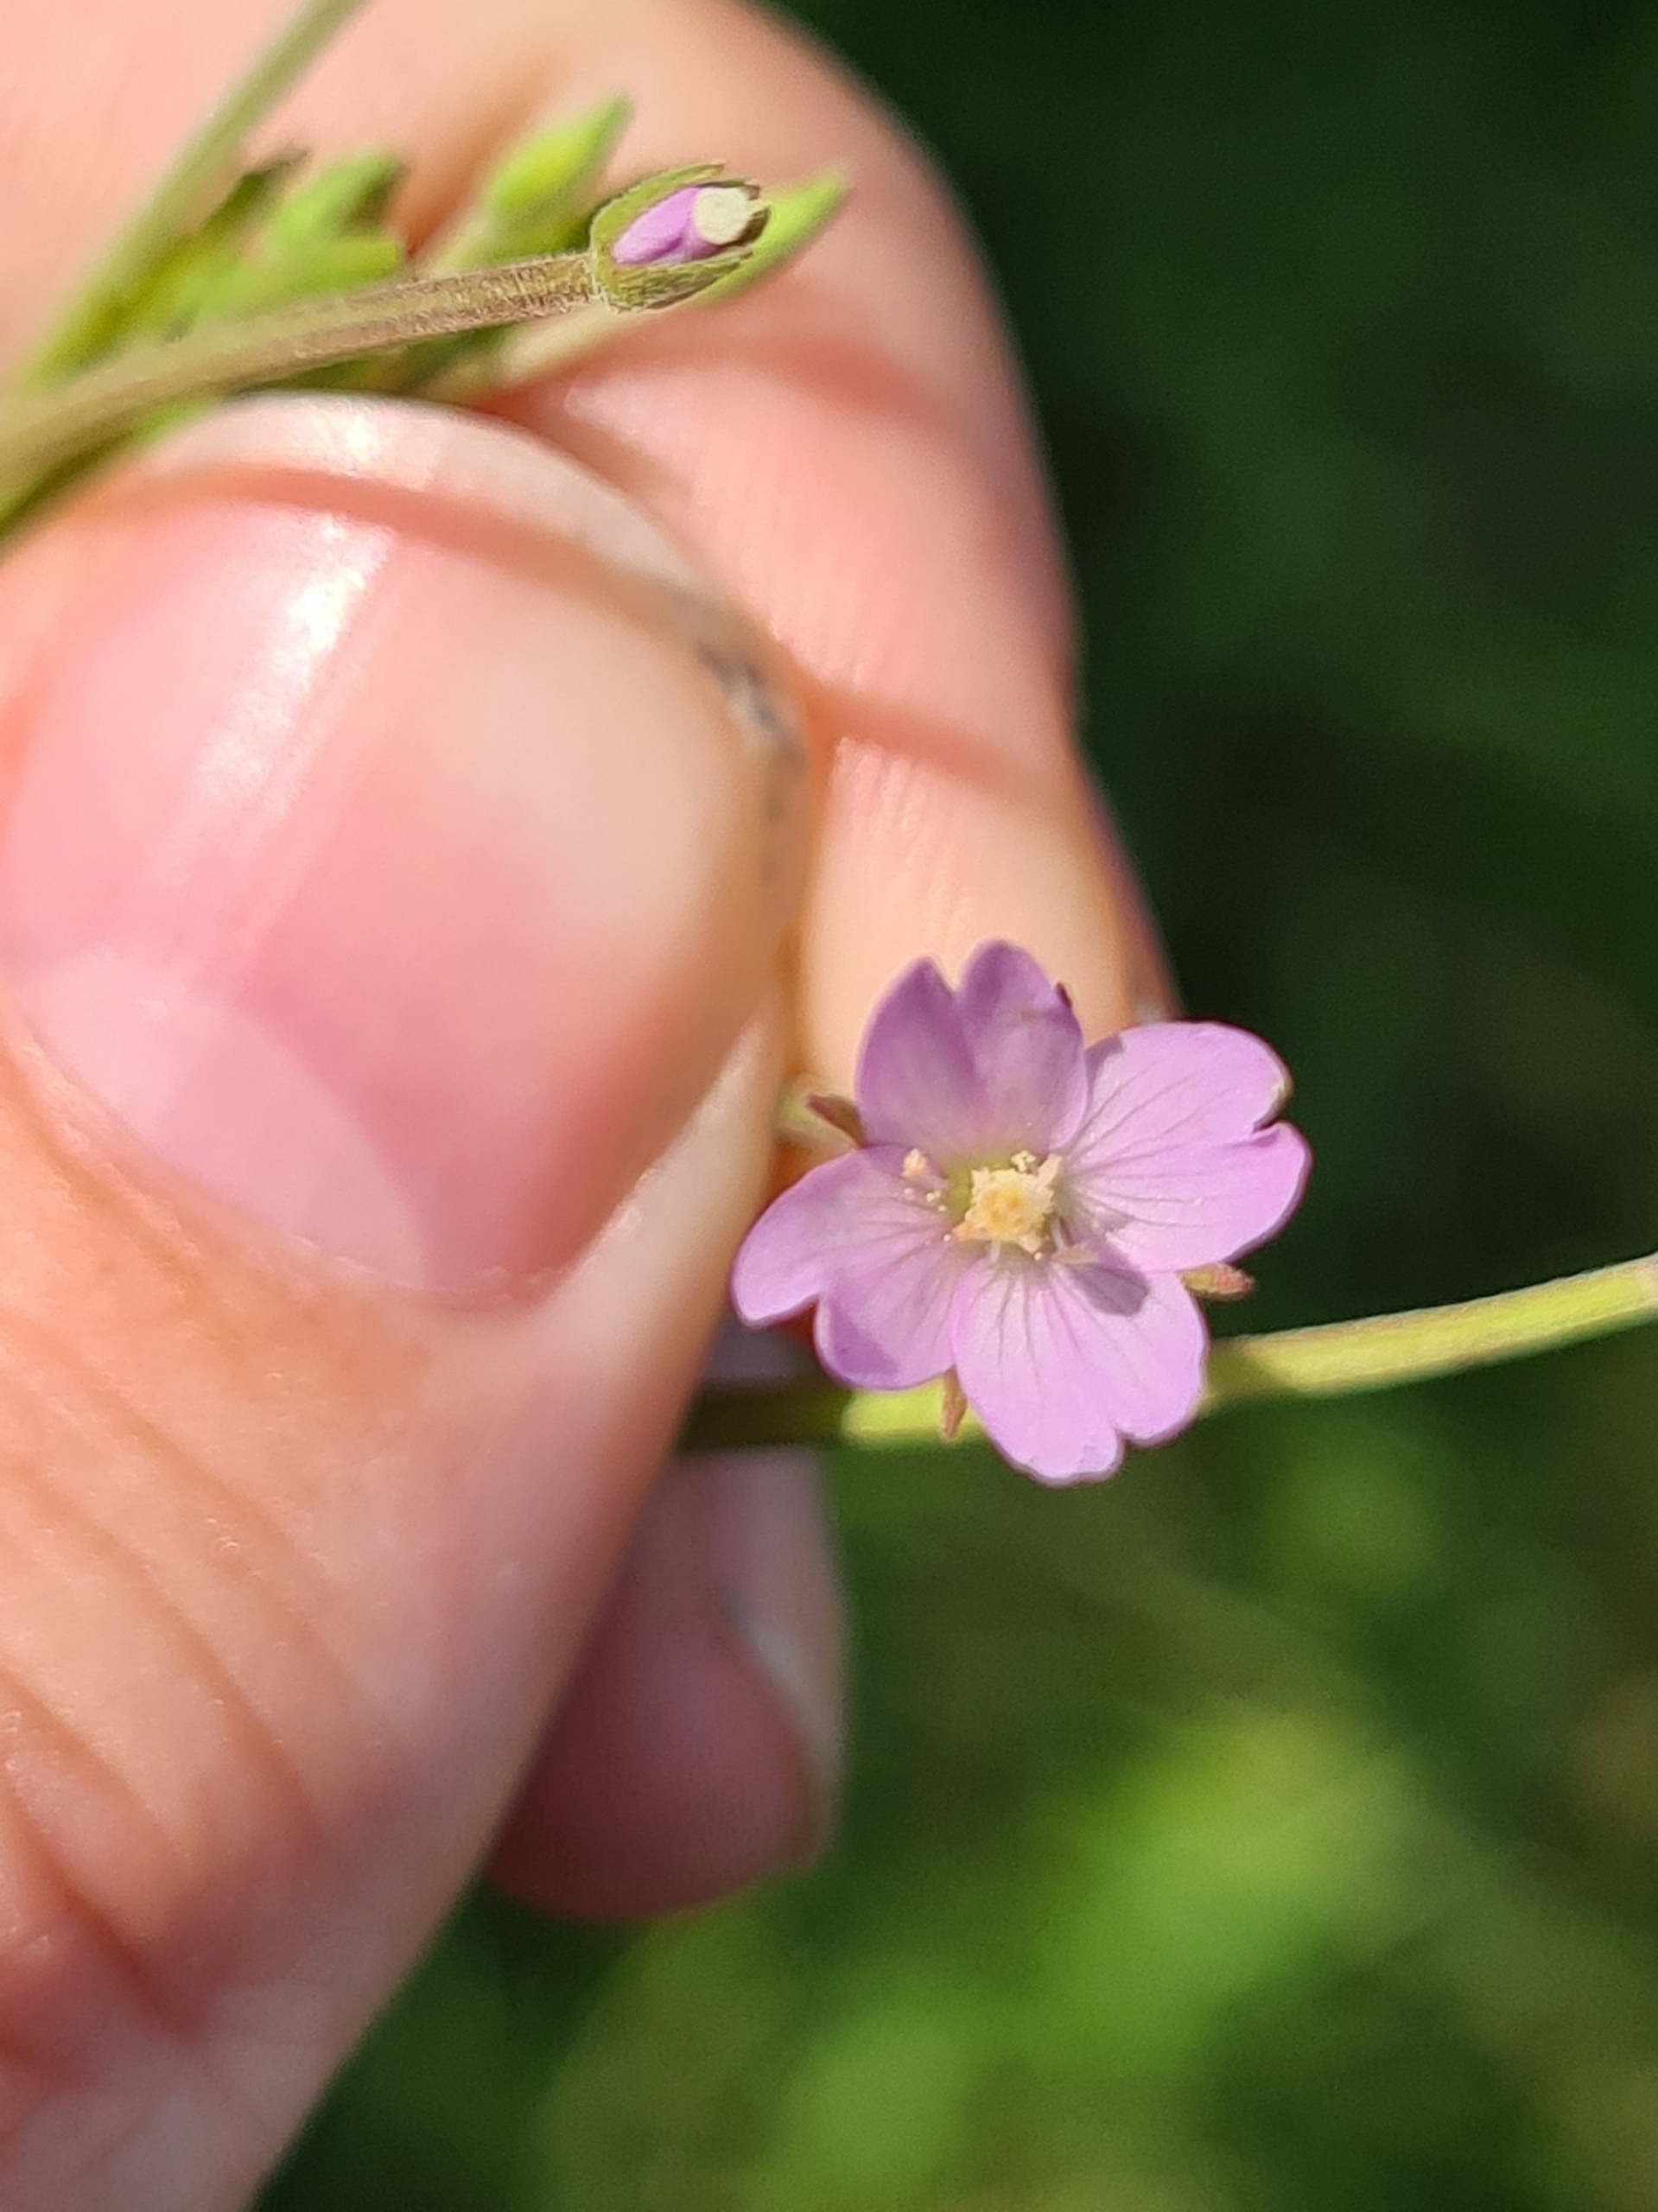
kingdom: Plantae
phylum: Tracheophyta
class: Magnoliopsida
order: Myrtales
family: Onagraceae
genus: Epilobium
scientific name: Epilobium
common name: Dueurtslægten
